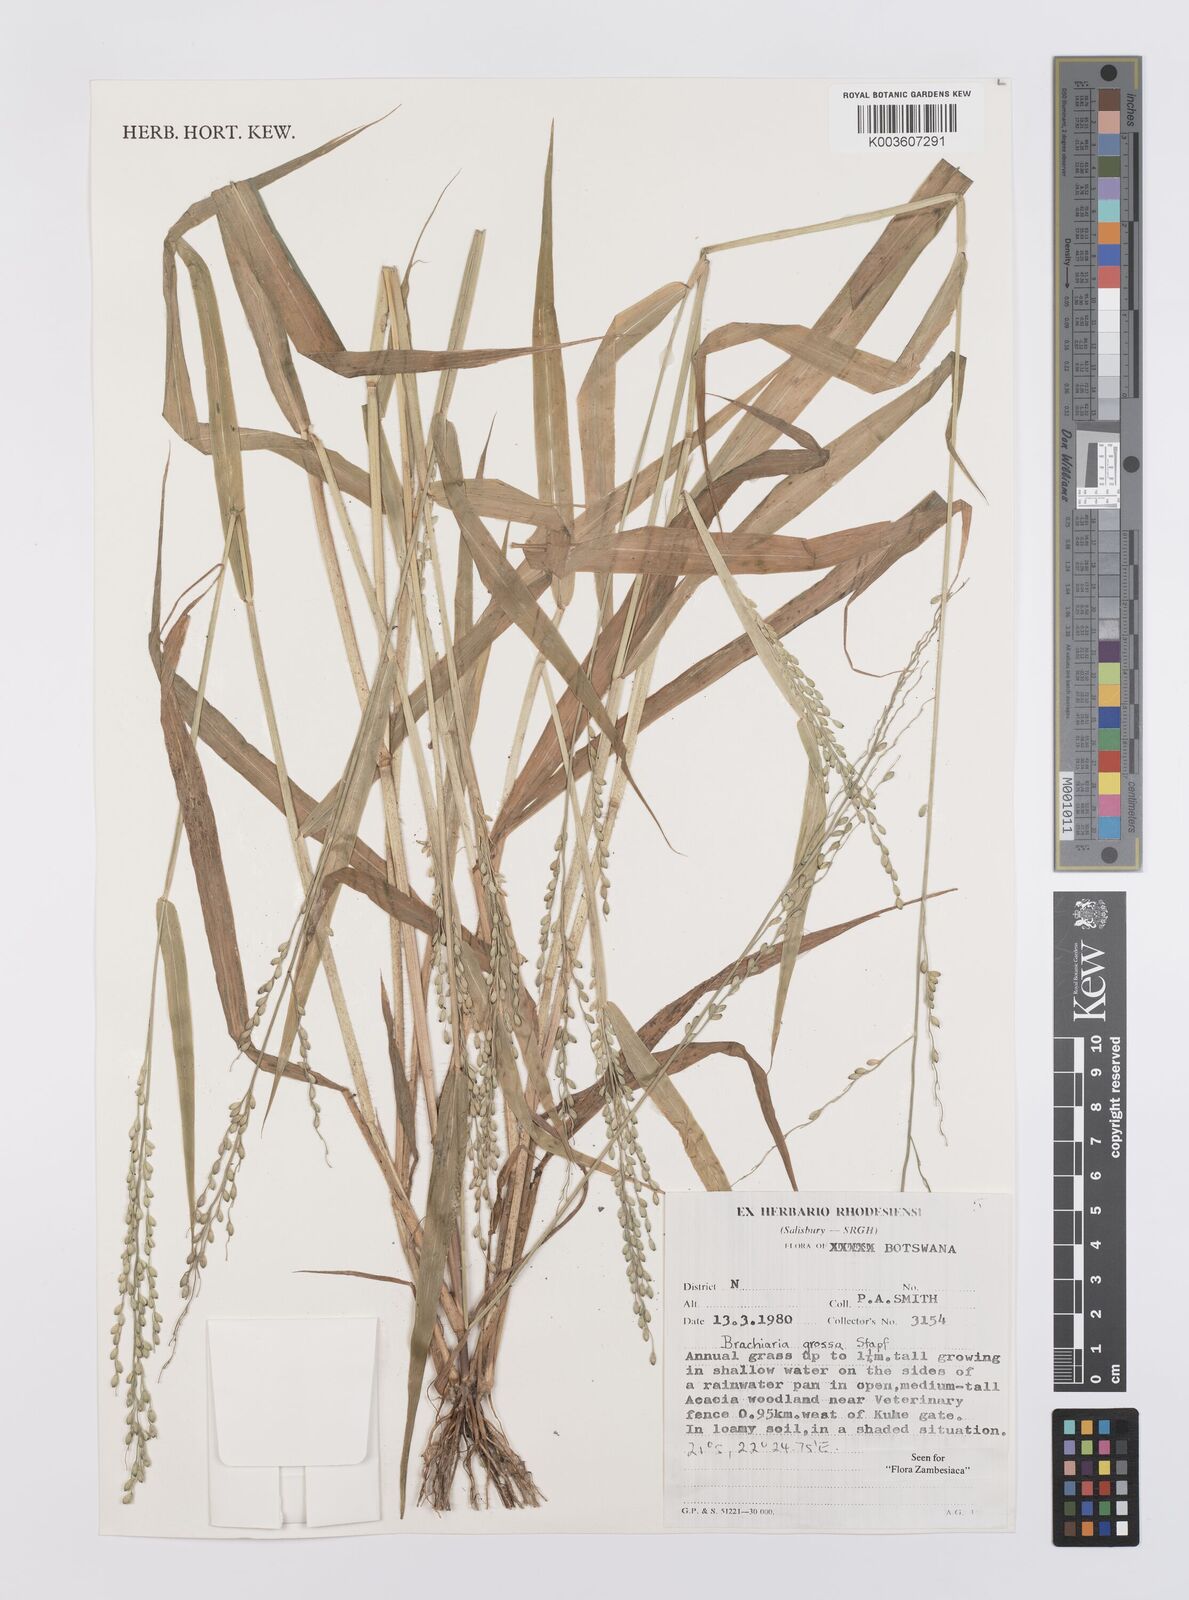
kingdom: Plantae
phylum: Tracheophyta
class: Liliopsida
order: Poales
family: Poaceae
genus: Urochloa
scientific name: Urochloa Brachiaria grossa
